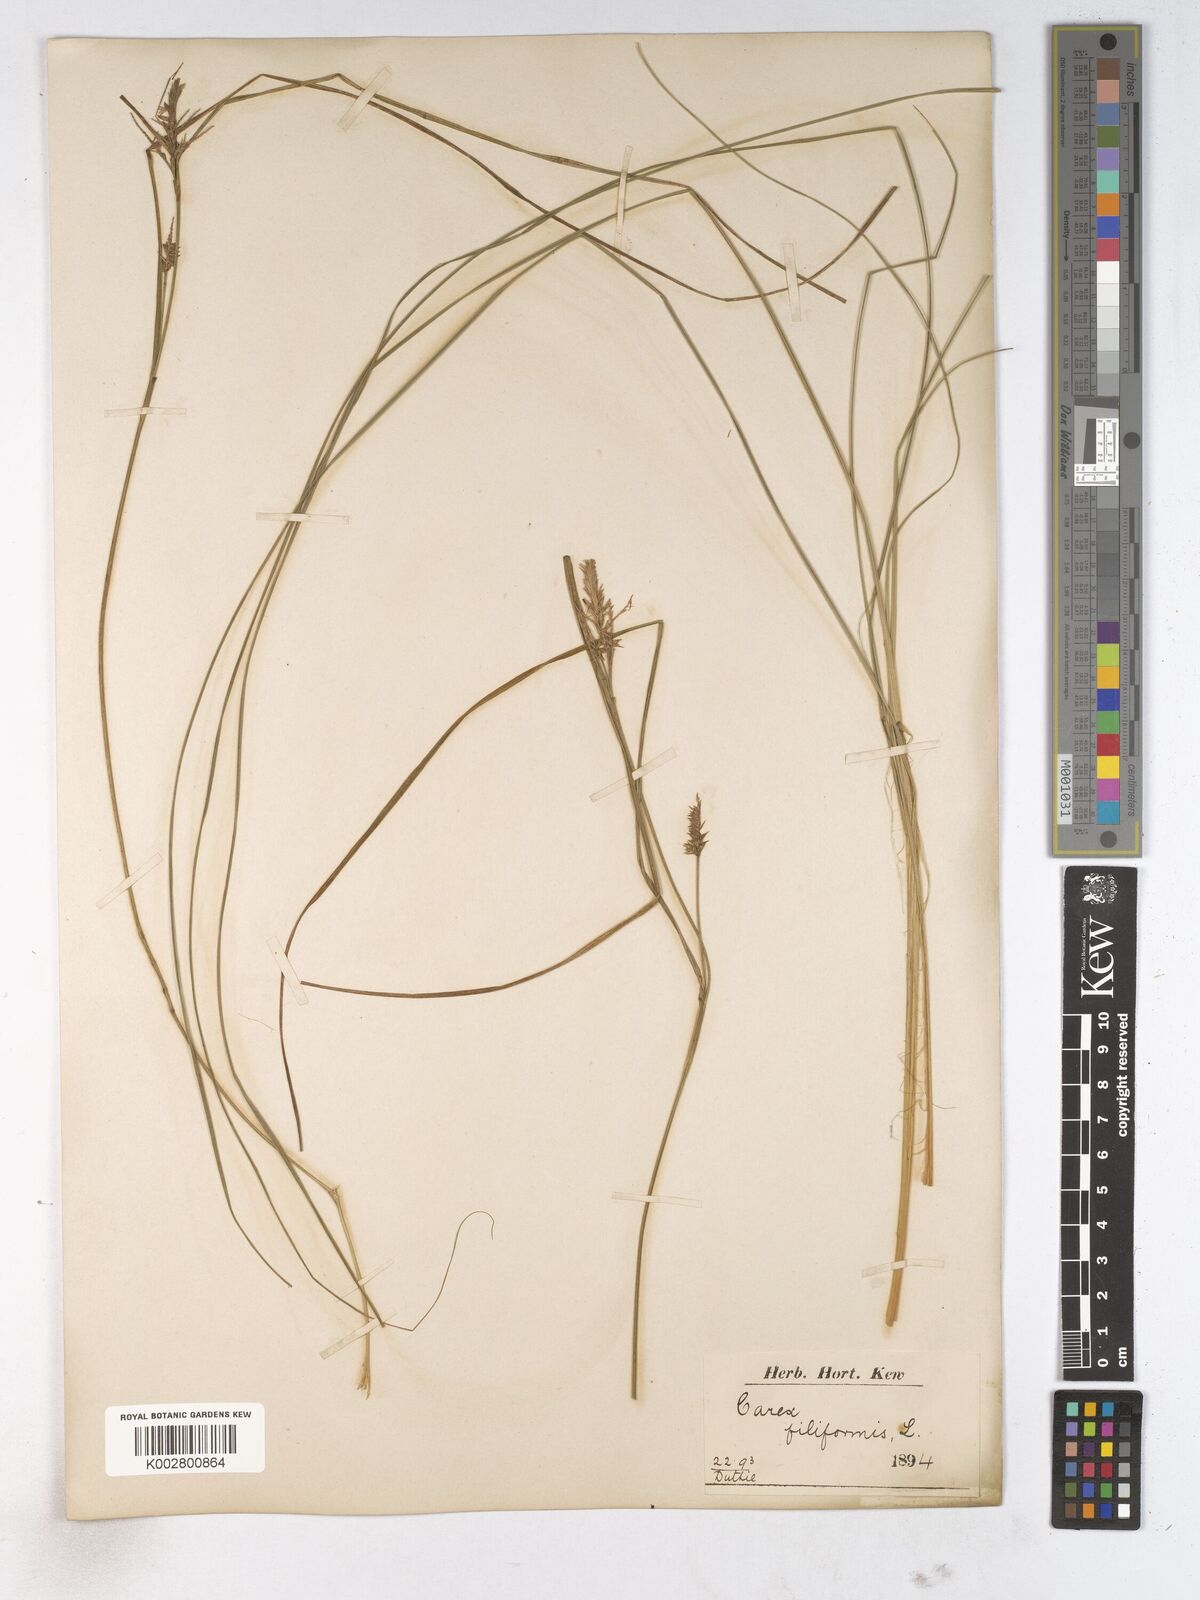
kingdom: Plantae
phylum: Tracheophyta
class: Liliopsida
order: Poales
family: Cyperaceae
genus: Carex
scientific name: Carex montana
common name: Soft-leaved sedge
